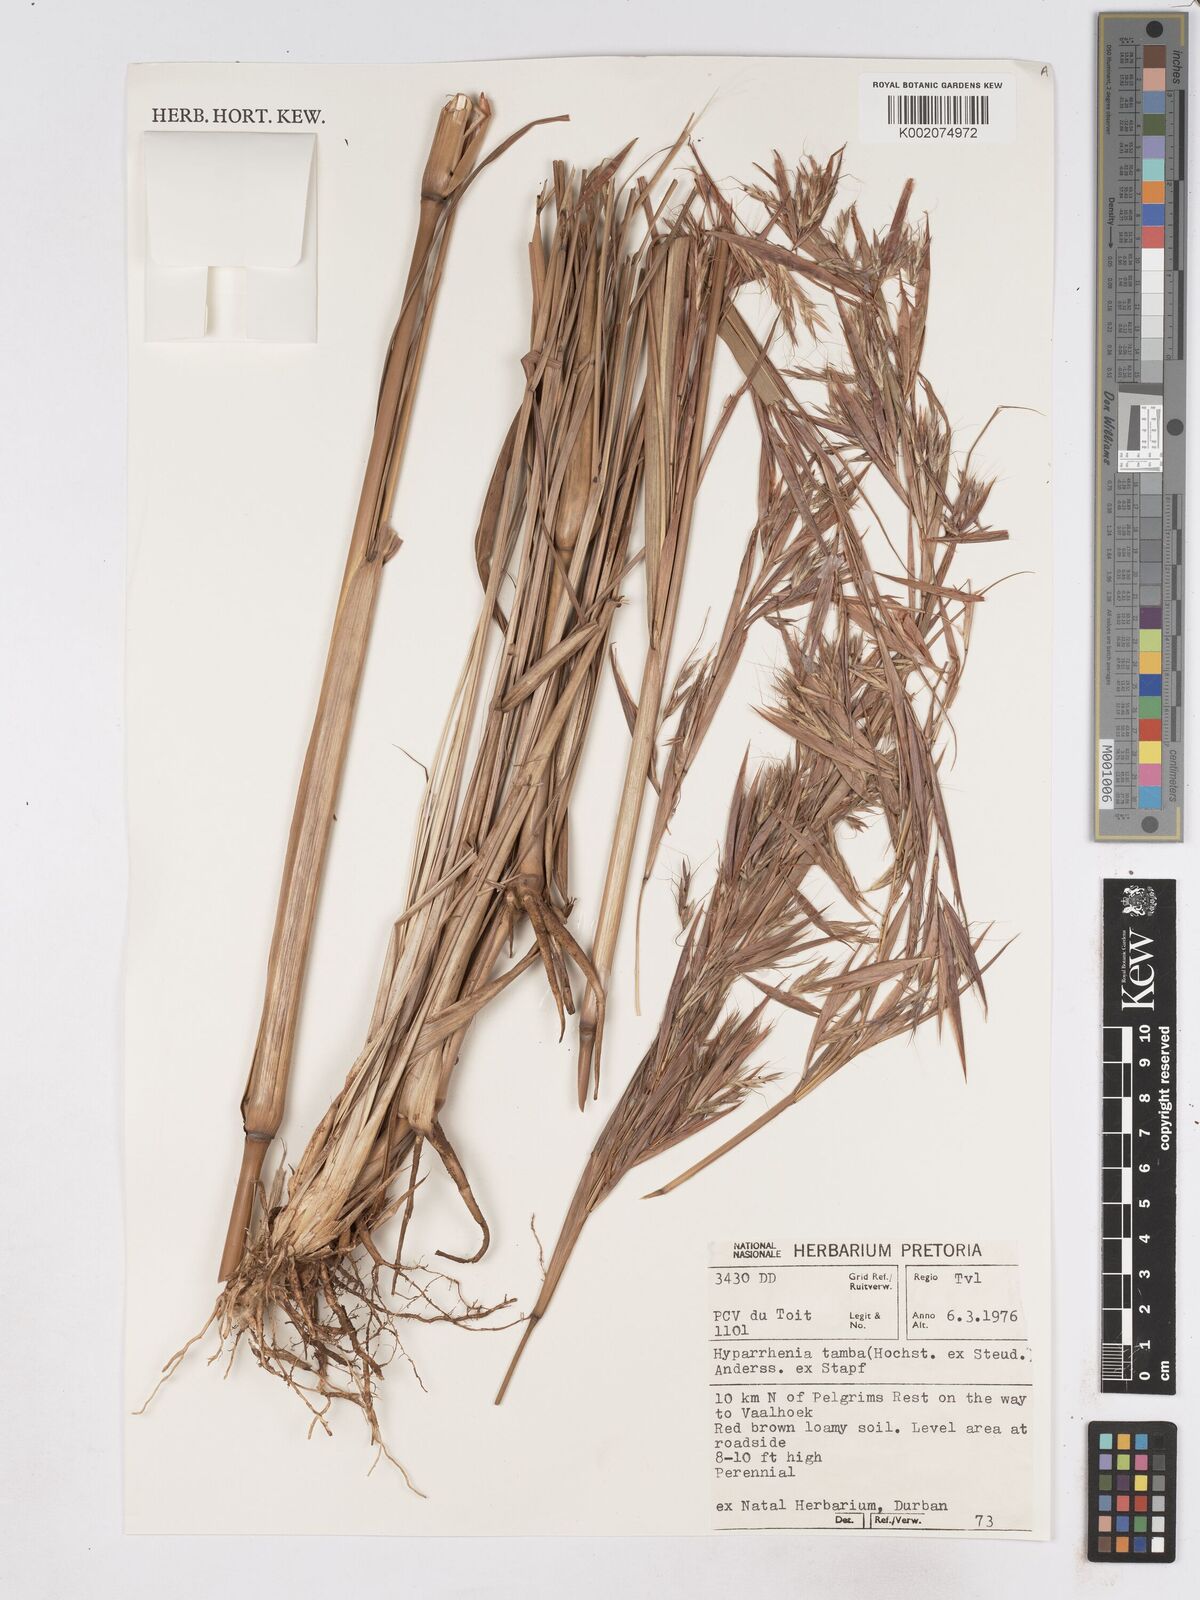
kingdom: Plantae
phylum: Tracheophyta
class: Liliopsida
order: Poales
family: Poaceae
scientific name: Poaceae
